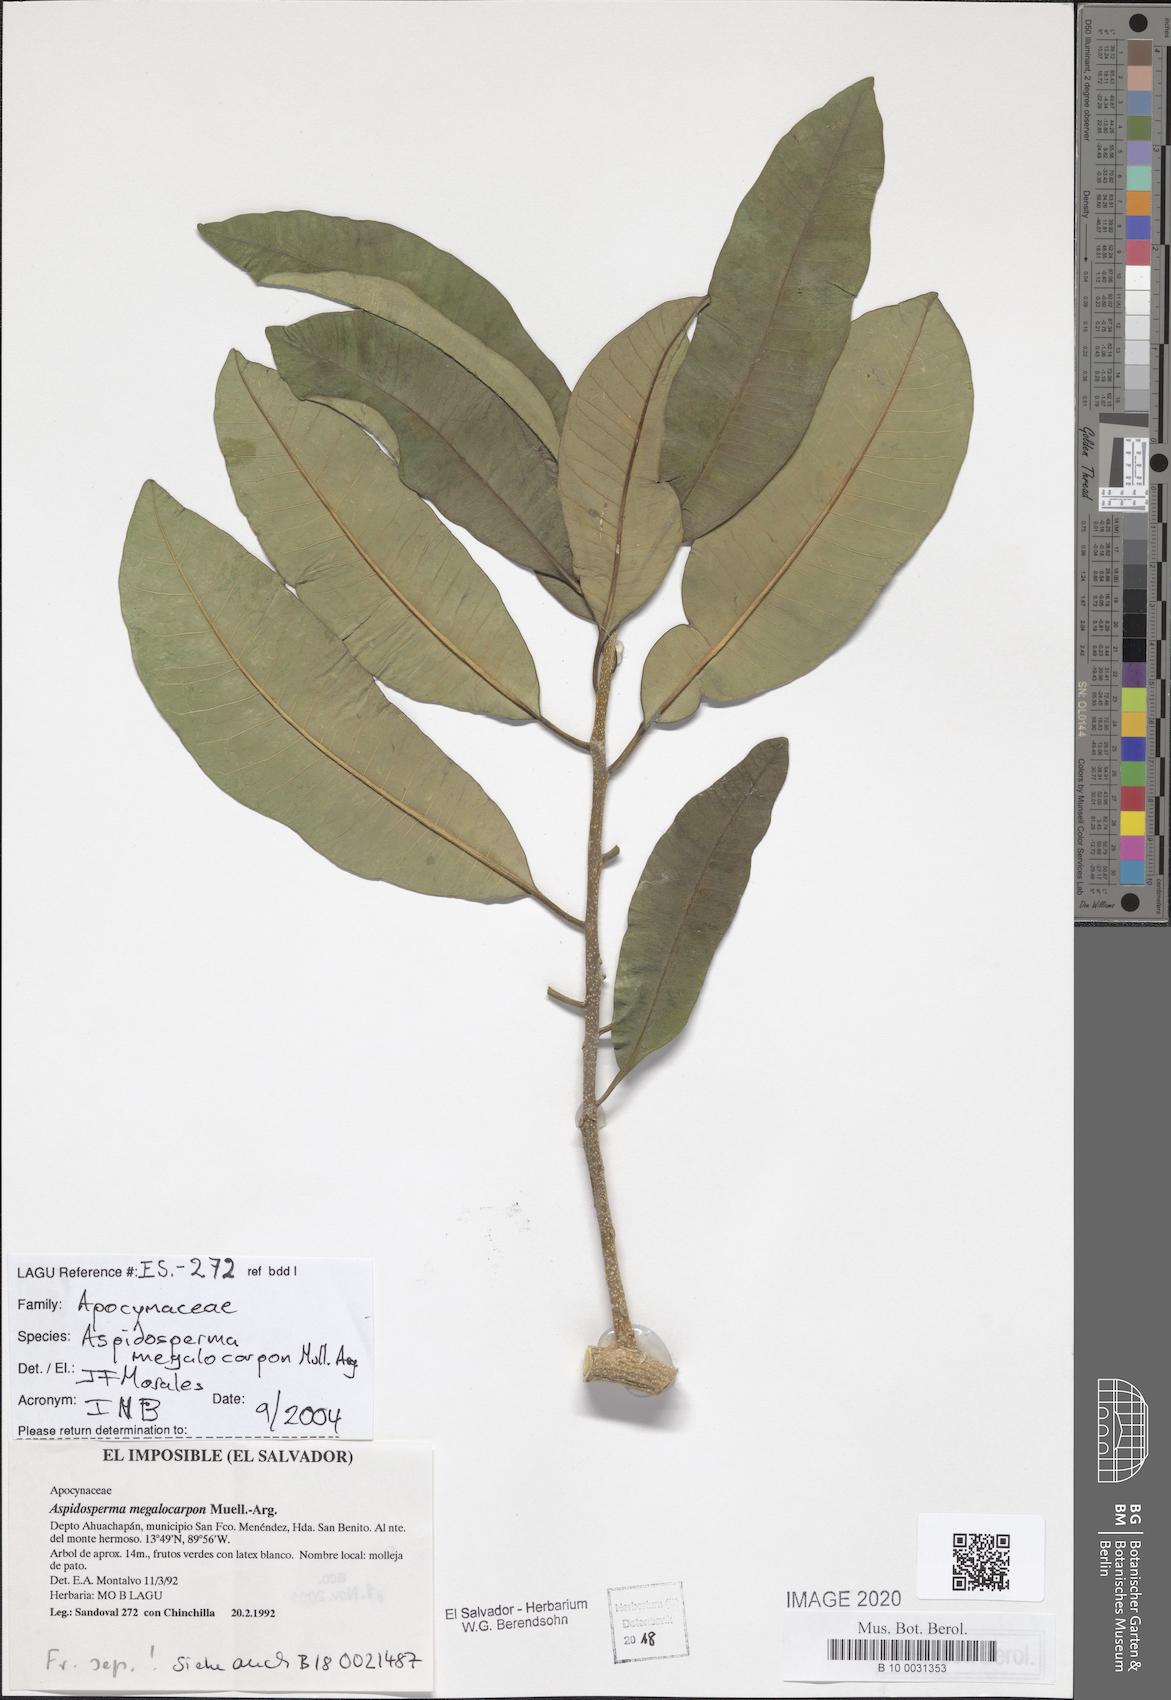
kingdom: Plantae
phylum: Tracheophyta
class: Magnoliopsida
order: Gentianales
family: Apocynaceae
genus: Aspidosperma
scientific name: Aspidosperma megalocarpon
